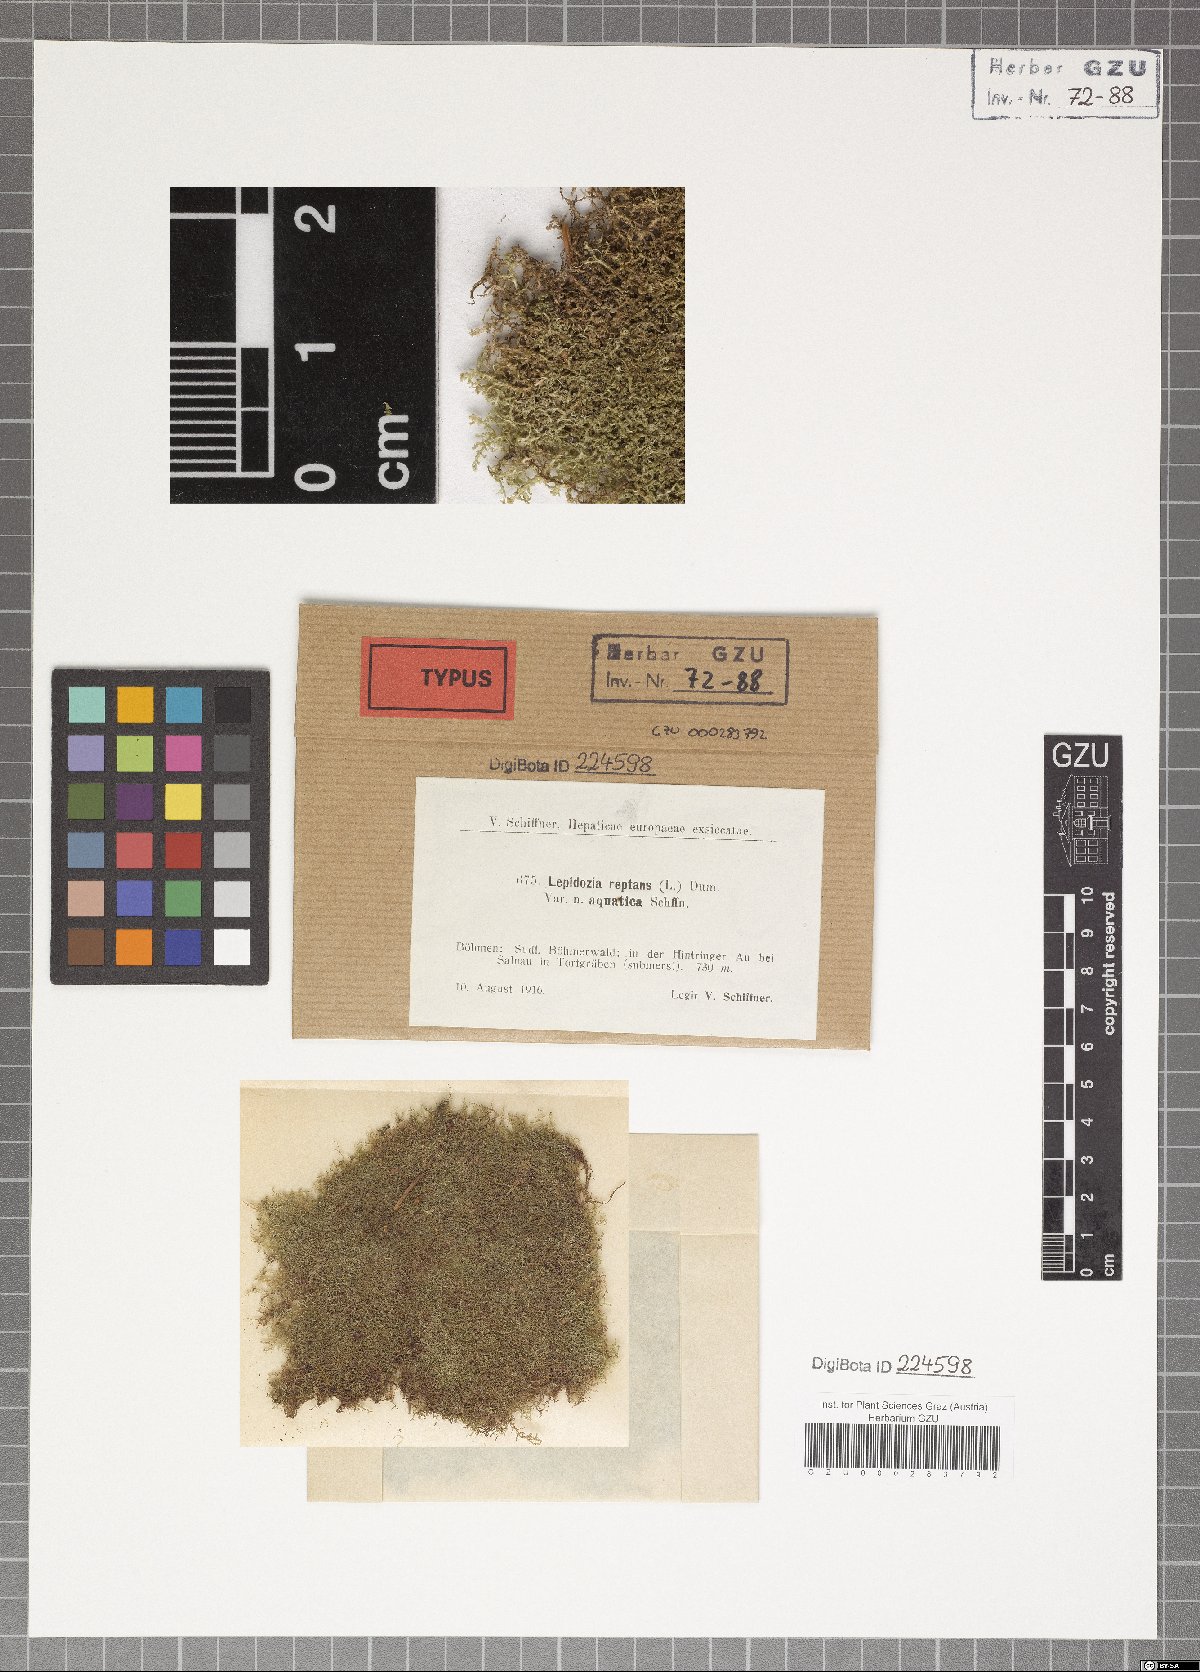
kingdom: Plantae
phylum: Marchantiophyta
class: Jungermanniopsida
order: Jungermanniales
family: Lepidoziaceae
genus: Lepidozia
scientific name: Lepidozia reptans
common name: Creeping fingerwort
